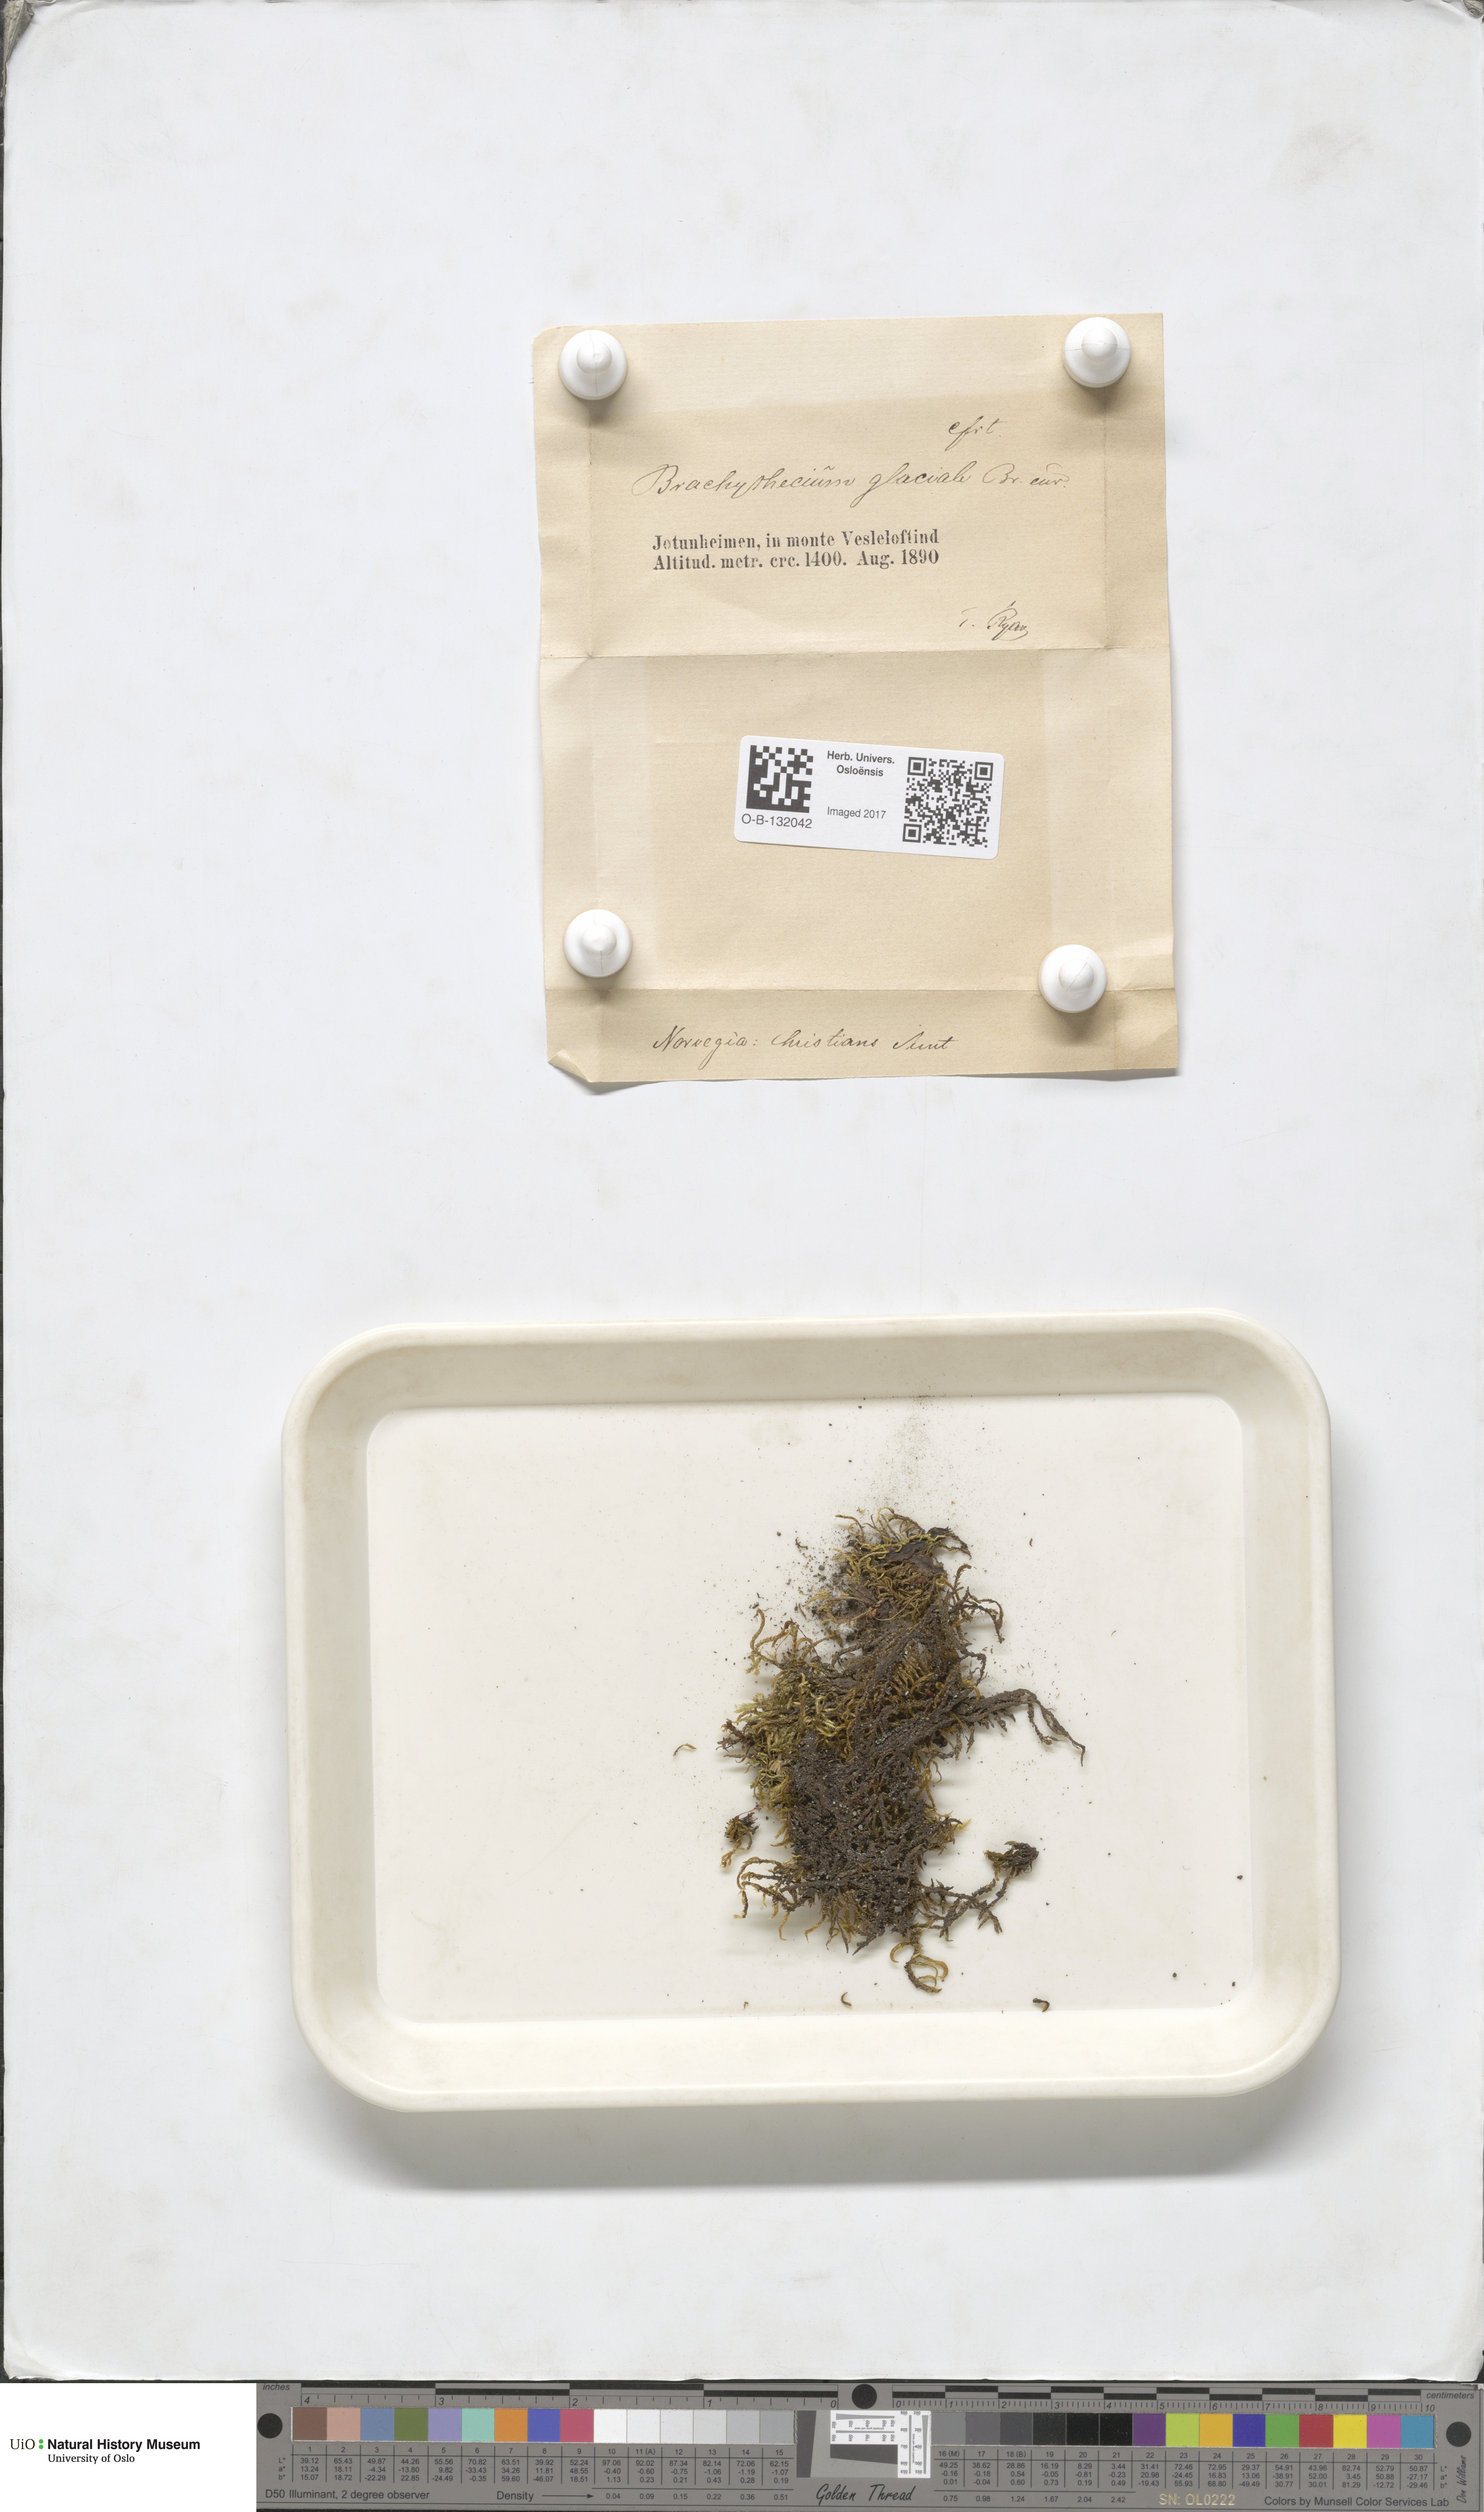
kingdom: Plantae
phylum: Bryophyta
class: Bryopsida
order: Hypnales
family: Brachytheciaceae
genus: Sciuro-hypnum
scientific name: Sciuro-hypnum glaciale
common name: Snow feather-moss
